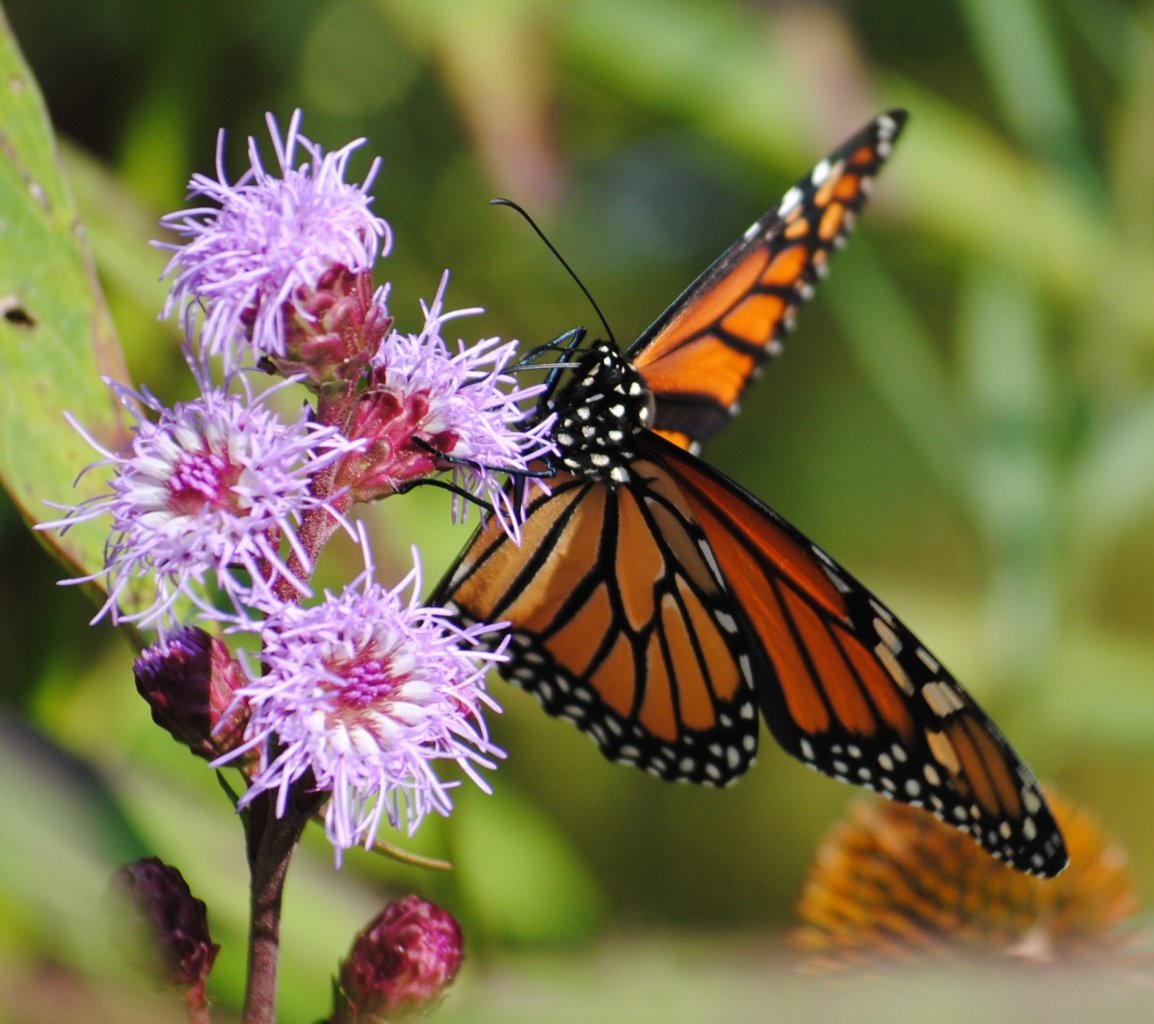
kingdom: Animalia
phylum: Arthropoda
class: Insecta
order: Lepidoptera
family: Nymphalidae
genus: Danaus
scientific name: Danaus plexippus
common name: Monarch
